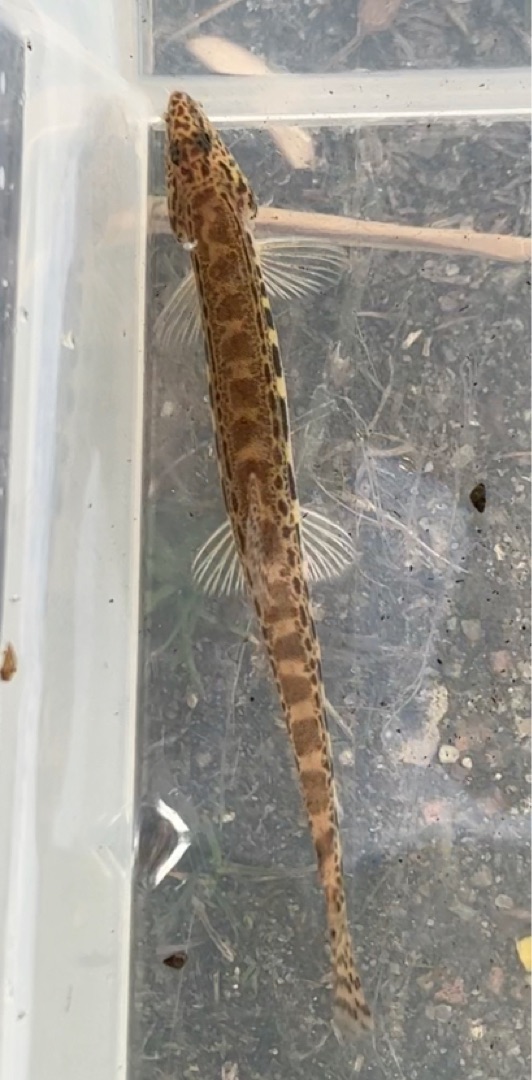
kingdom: Animalia
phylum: Chordata
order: Cypriniformes
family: Cobitidae
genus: Cobitis
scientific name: Cobitis taenia
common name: Pigsmerling
